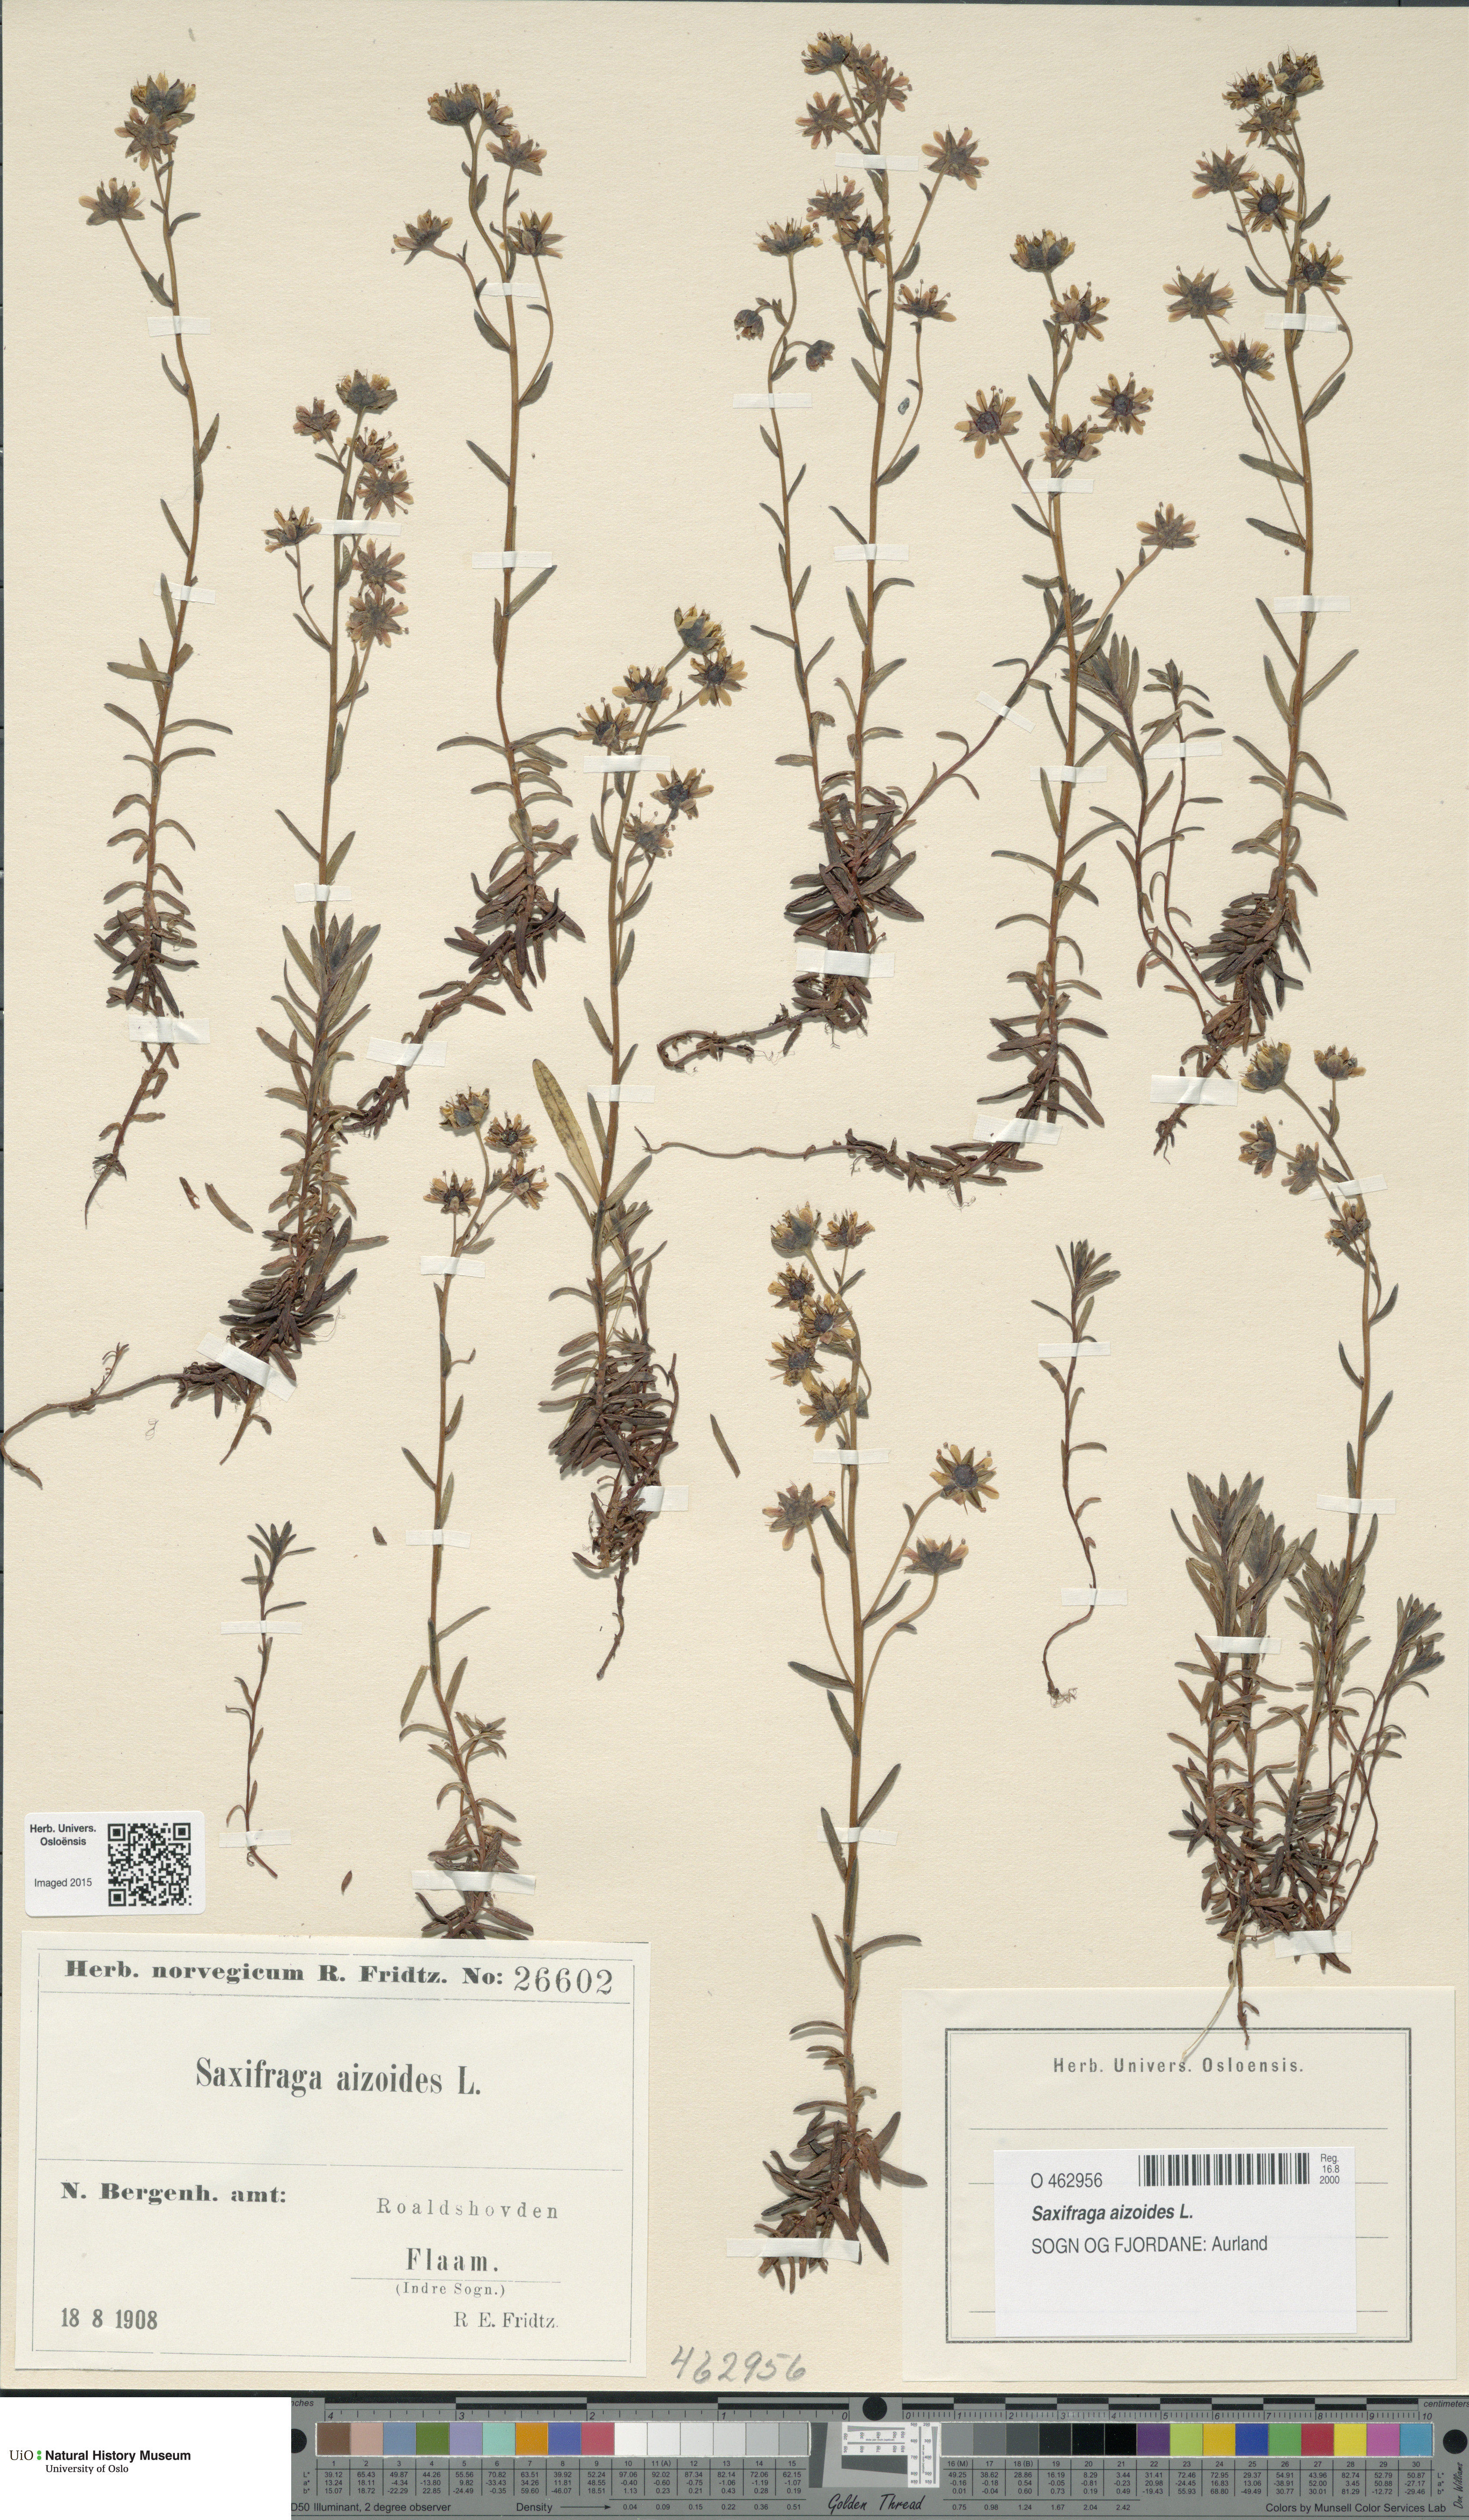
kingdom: Plantae
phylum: Tracheophyta
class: Magnoliopsida
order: Saxifragales
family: Saxifragaceae
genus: Saxifraga
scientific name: Saxifraga aizoides
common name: Yellow mountain saxifrage
